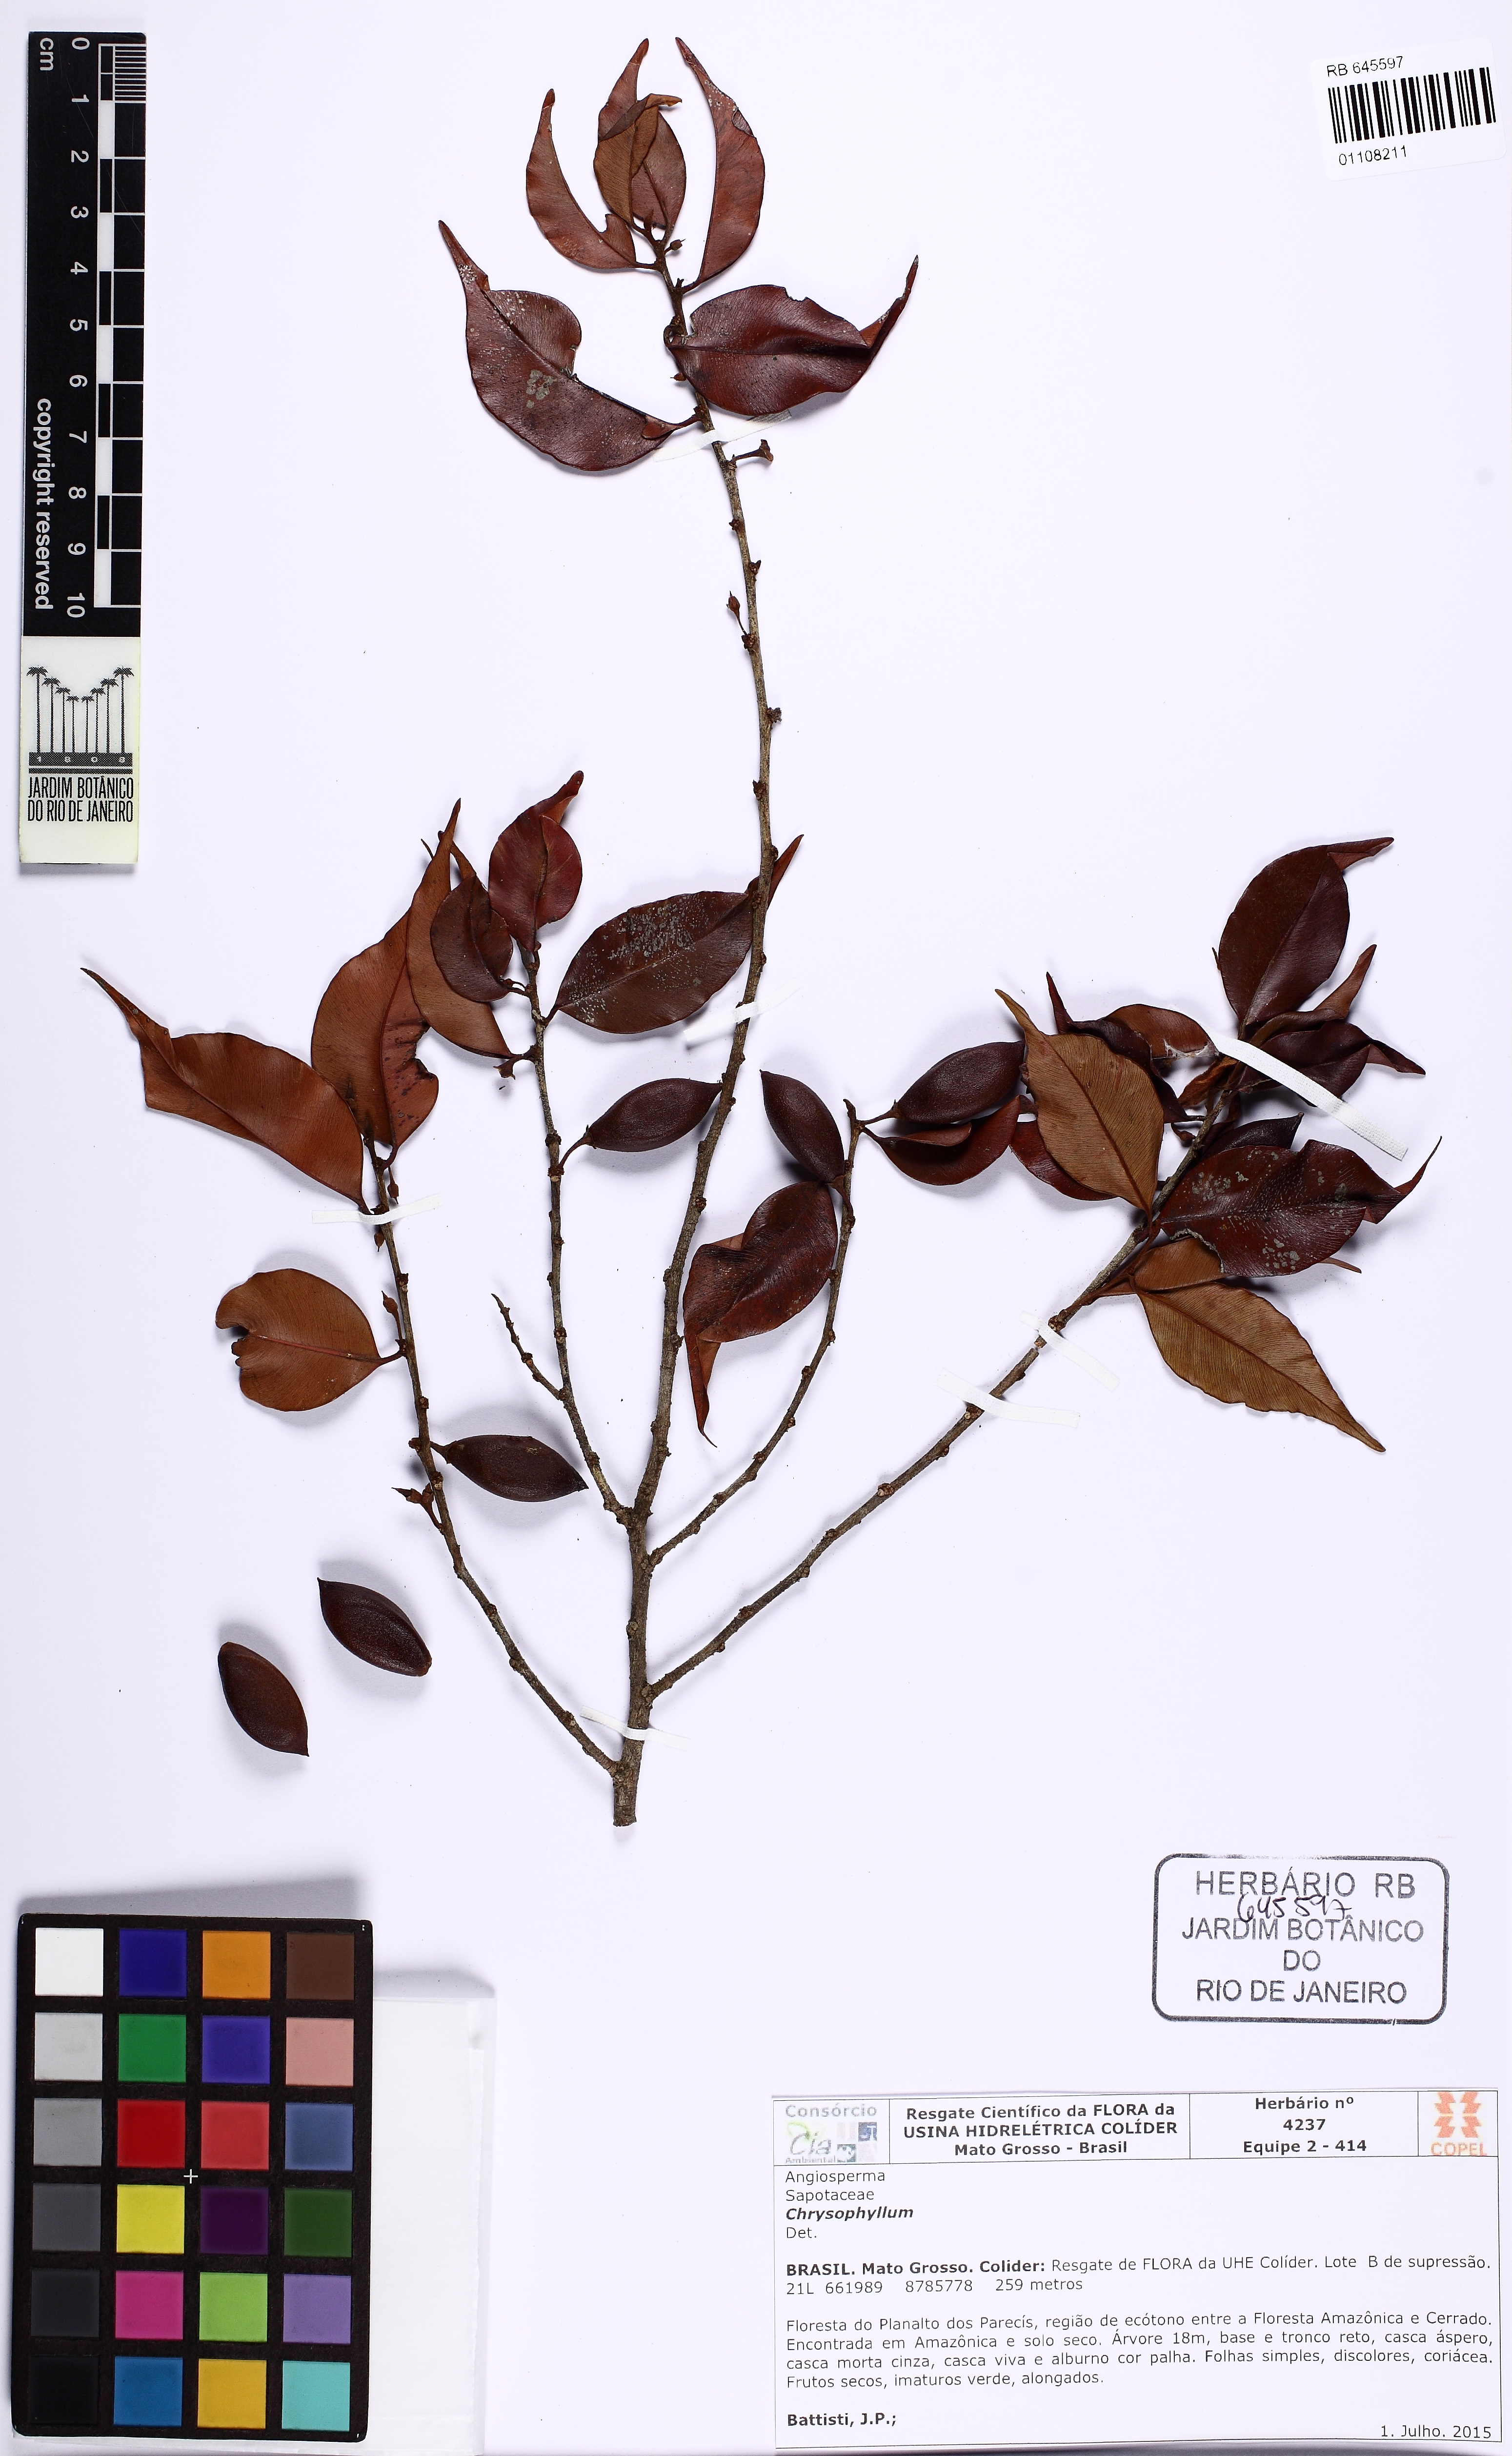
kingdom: Plantae
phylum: Tracheophyta
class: Magnoliopsida
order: Ericales
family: Sapotaceae
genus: Chrysophyllum
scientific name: Chrysophyllum
